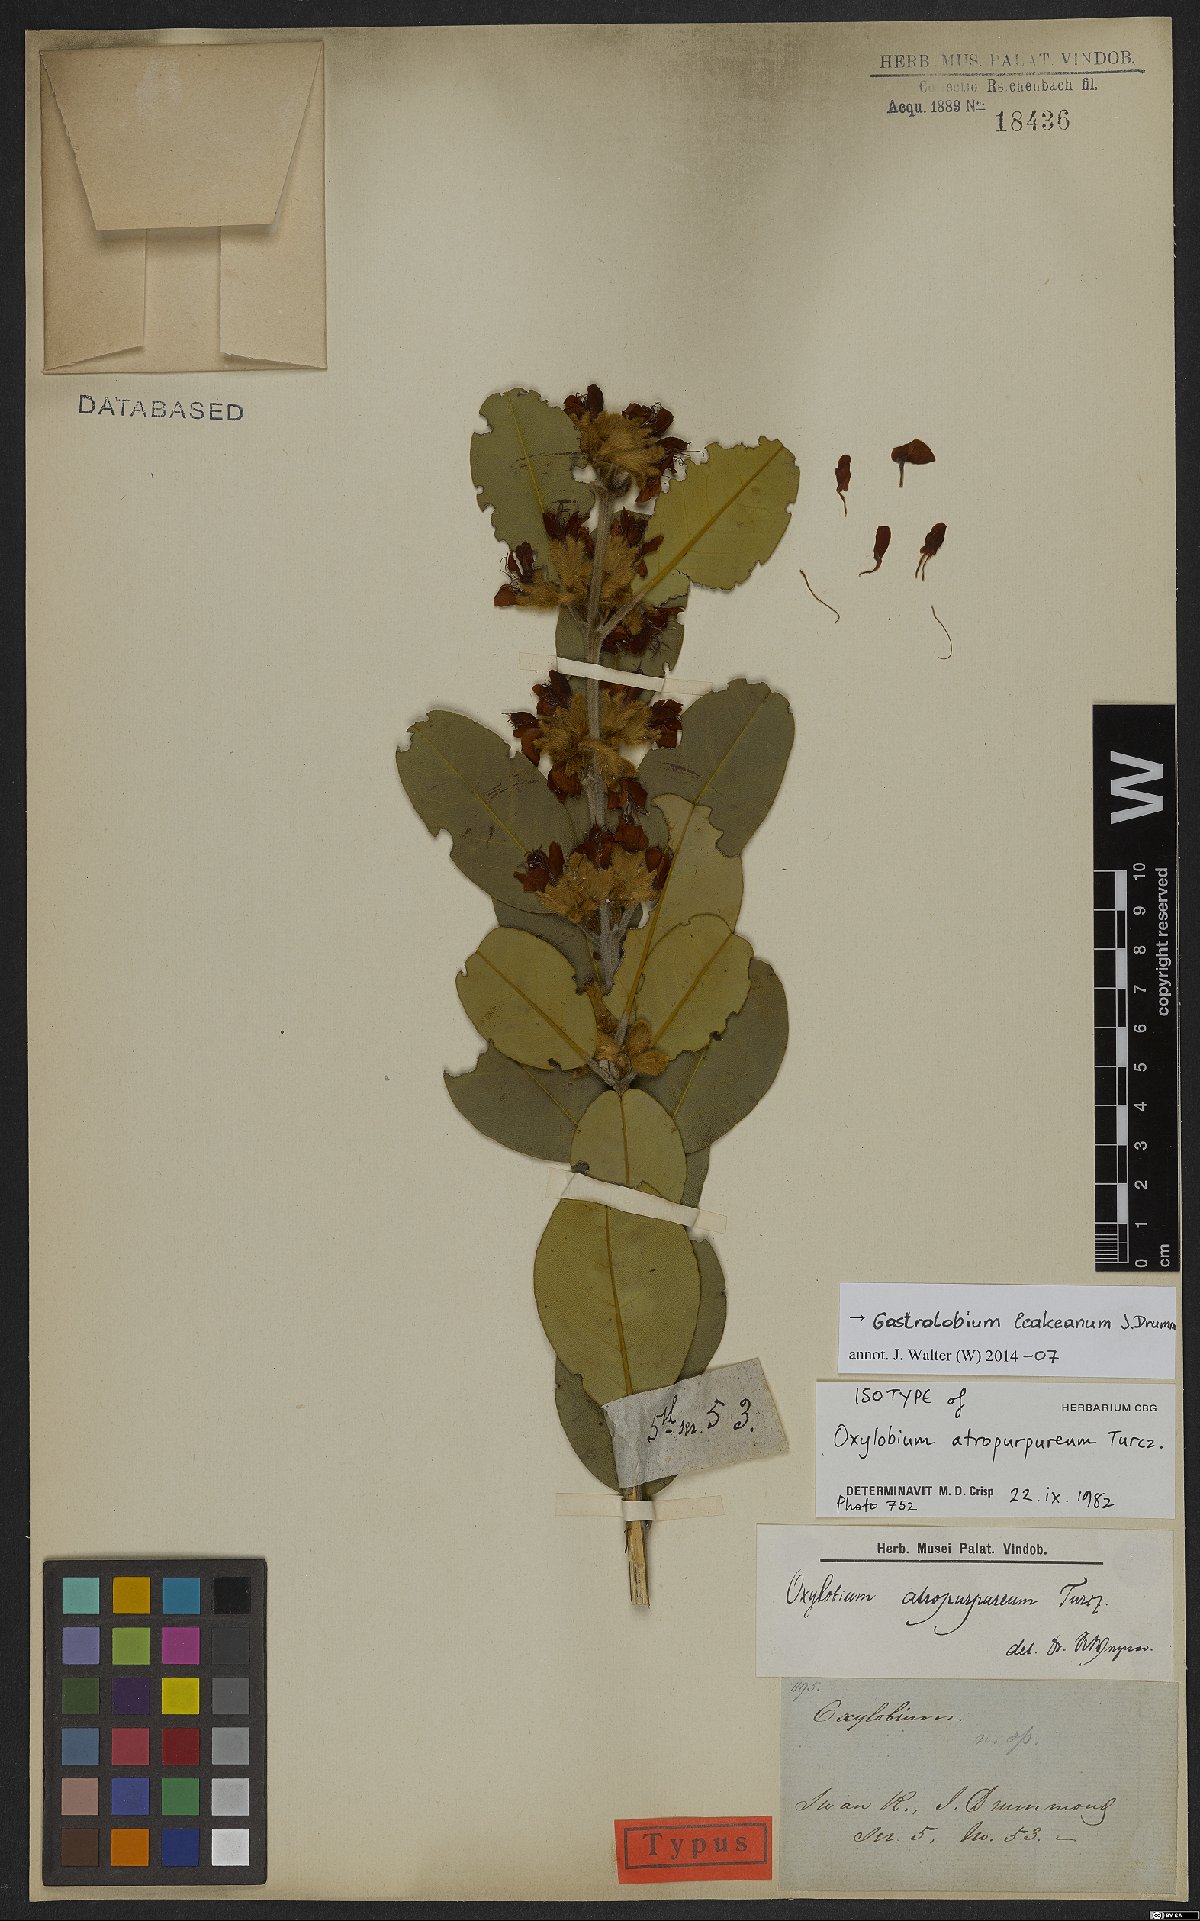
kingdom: Plantae
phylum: Tracheophyta
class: Magnoliopsida
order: Fabales
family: Fabaceae
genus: Gastrolobium
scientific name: Gastrolobium leakeanum
